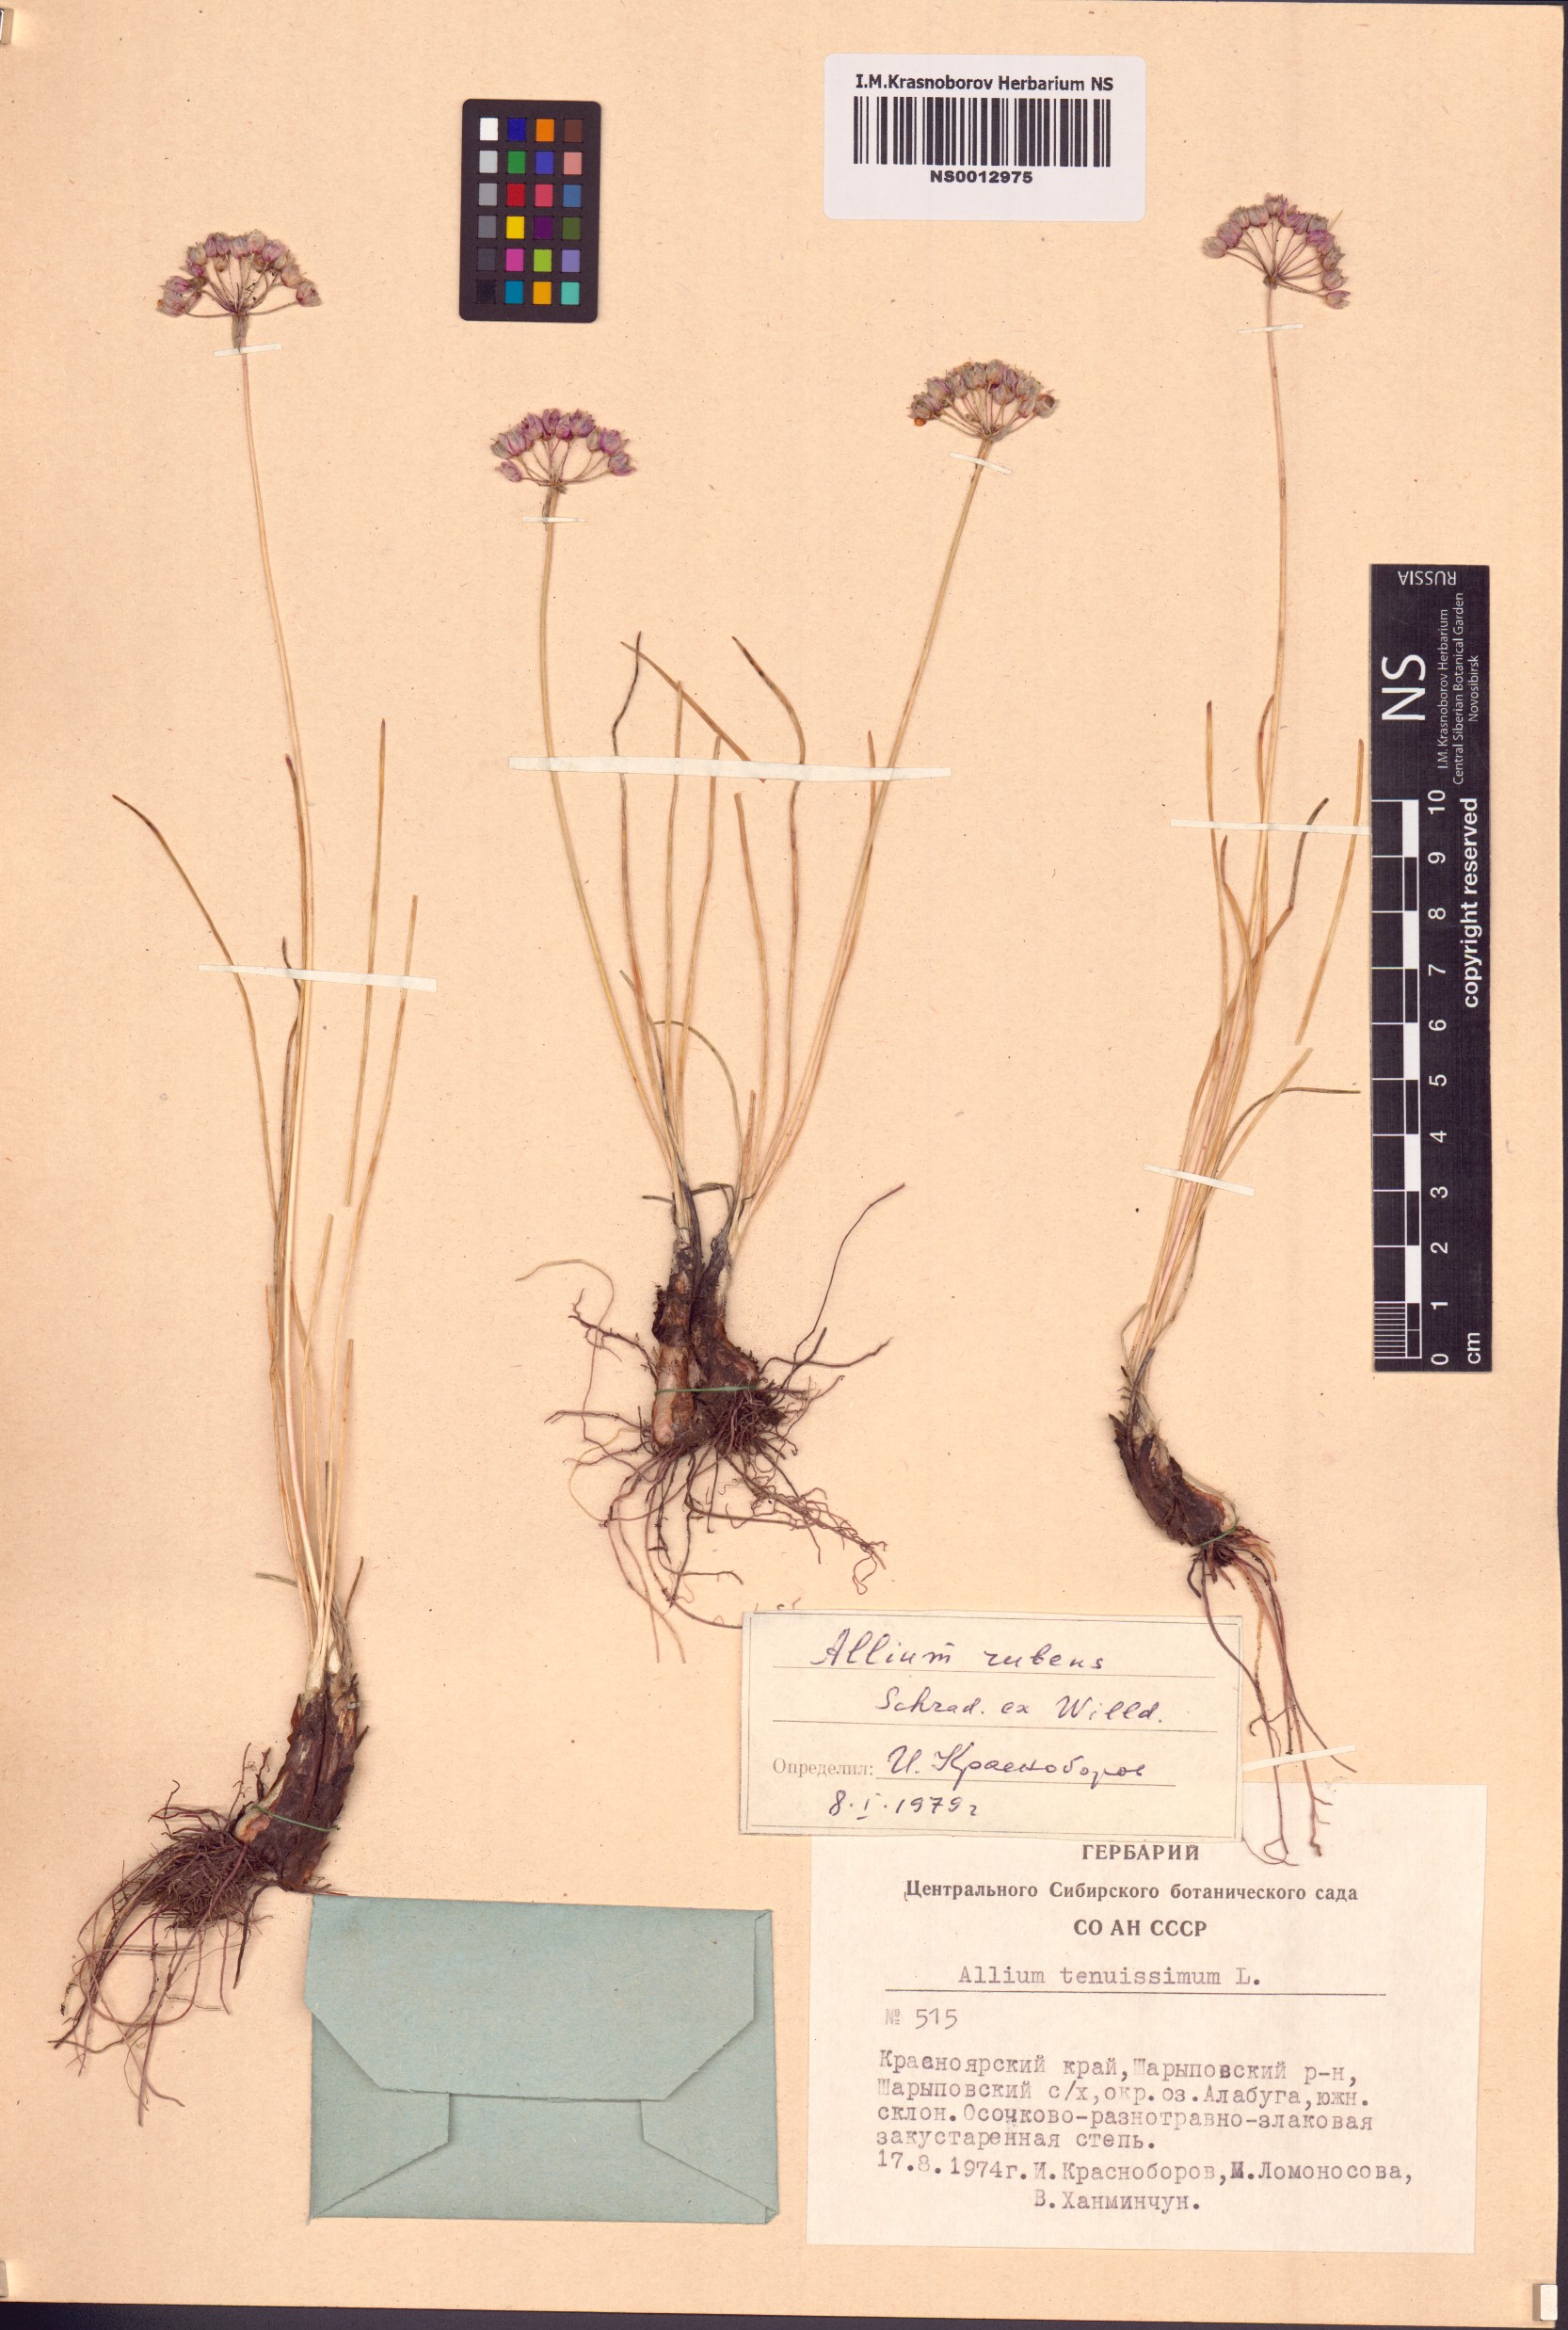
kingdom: Plantae
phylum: Tracheophyta
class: Liliopsida
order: Asparagales
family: Amaryllidaceae
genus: Allium
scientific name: Allium rubens
